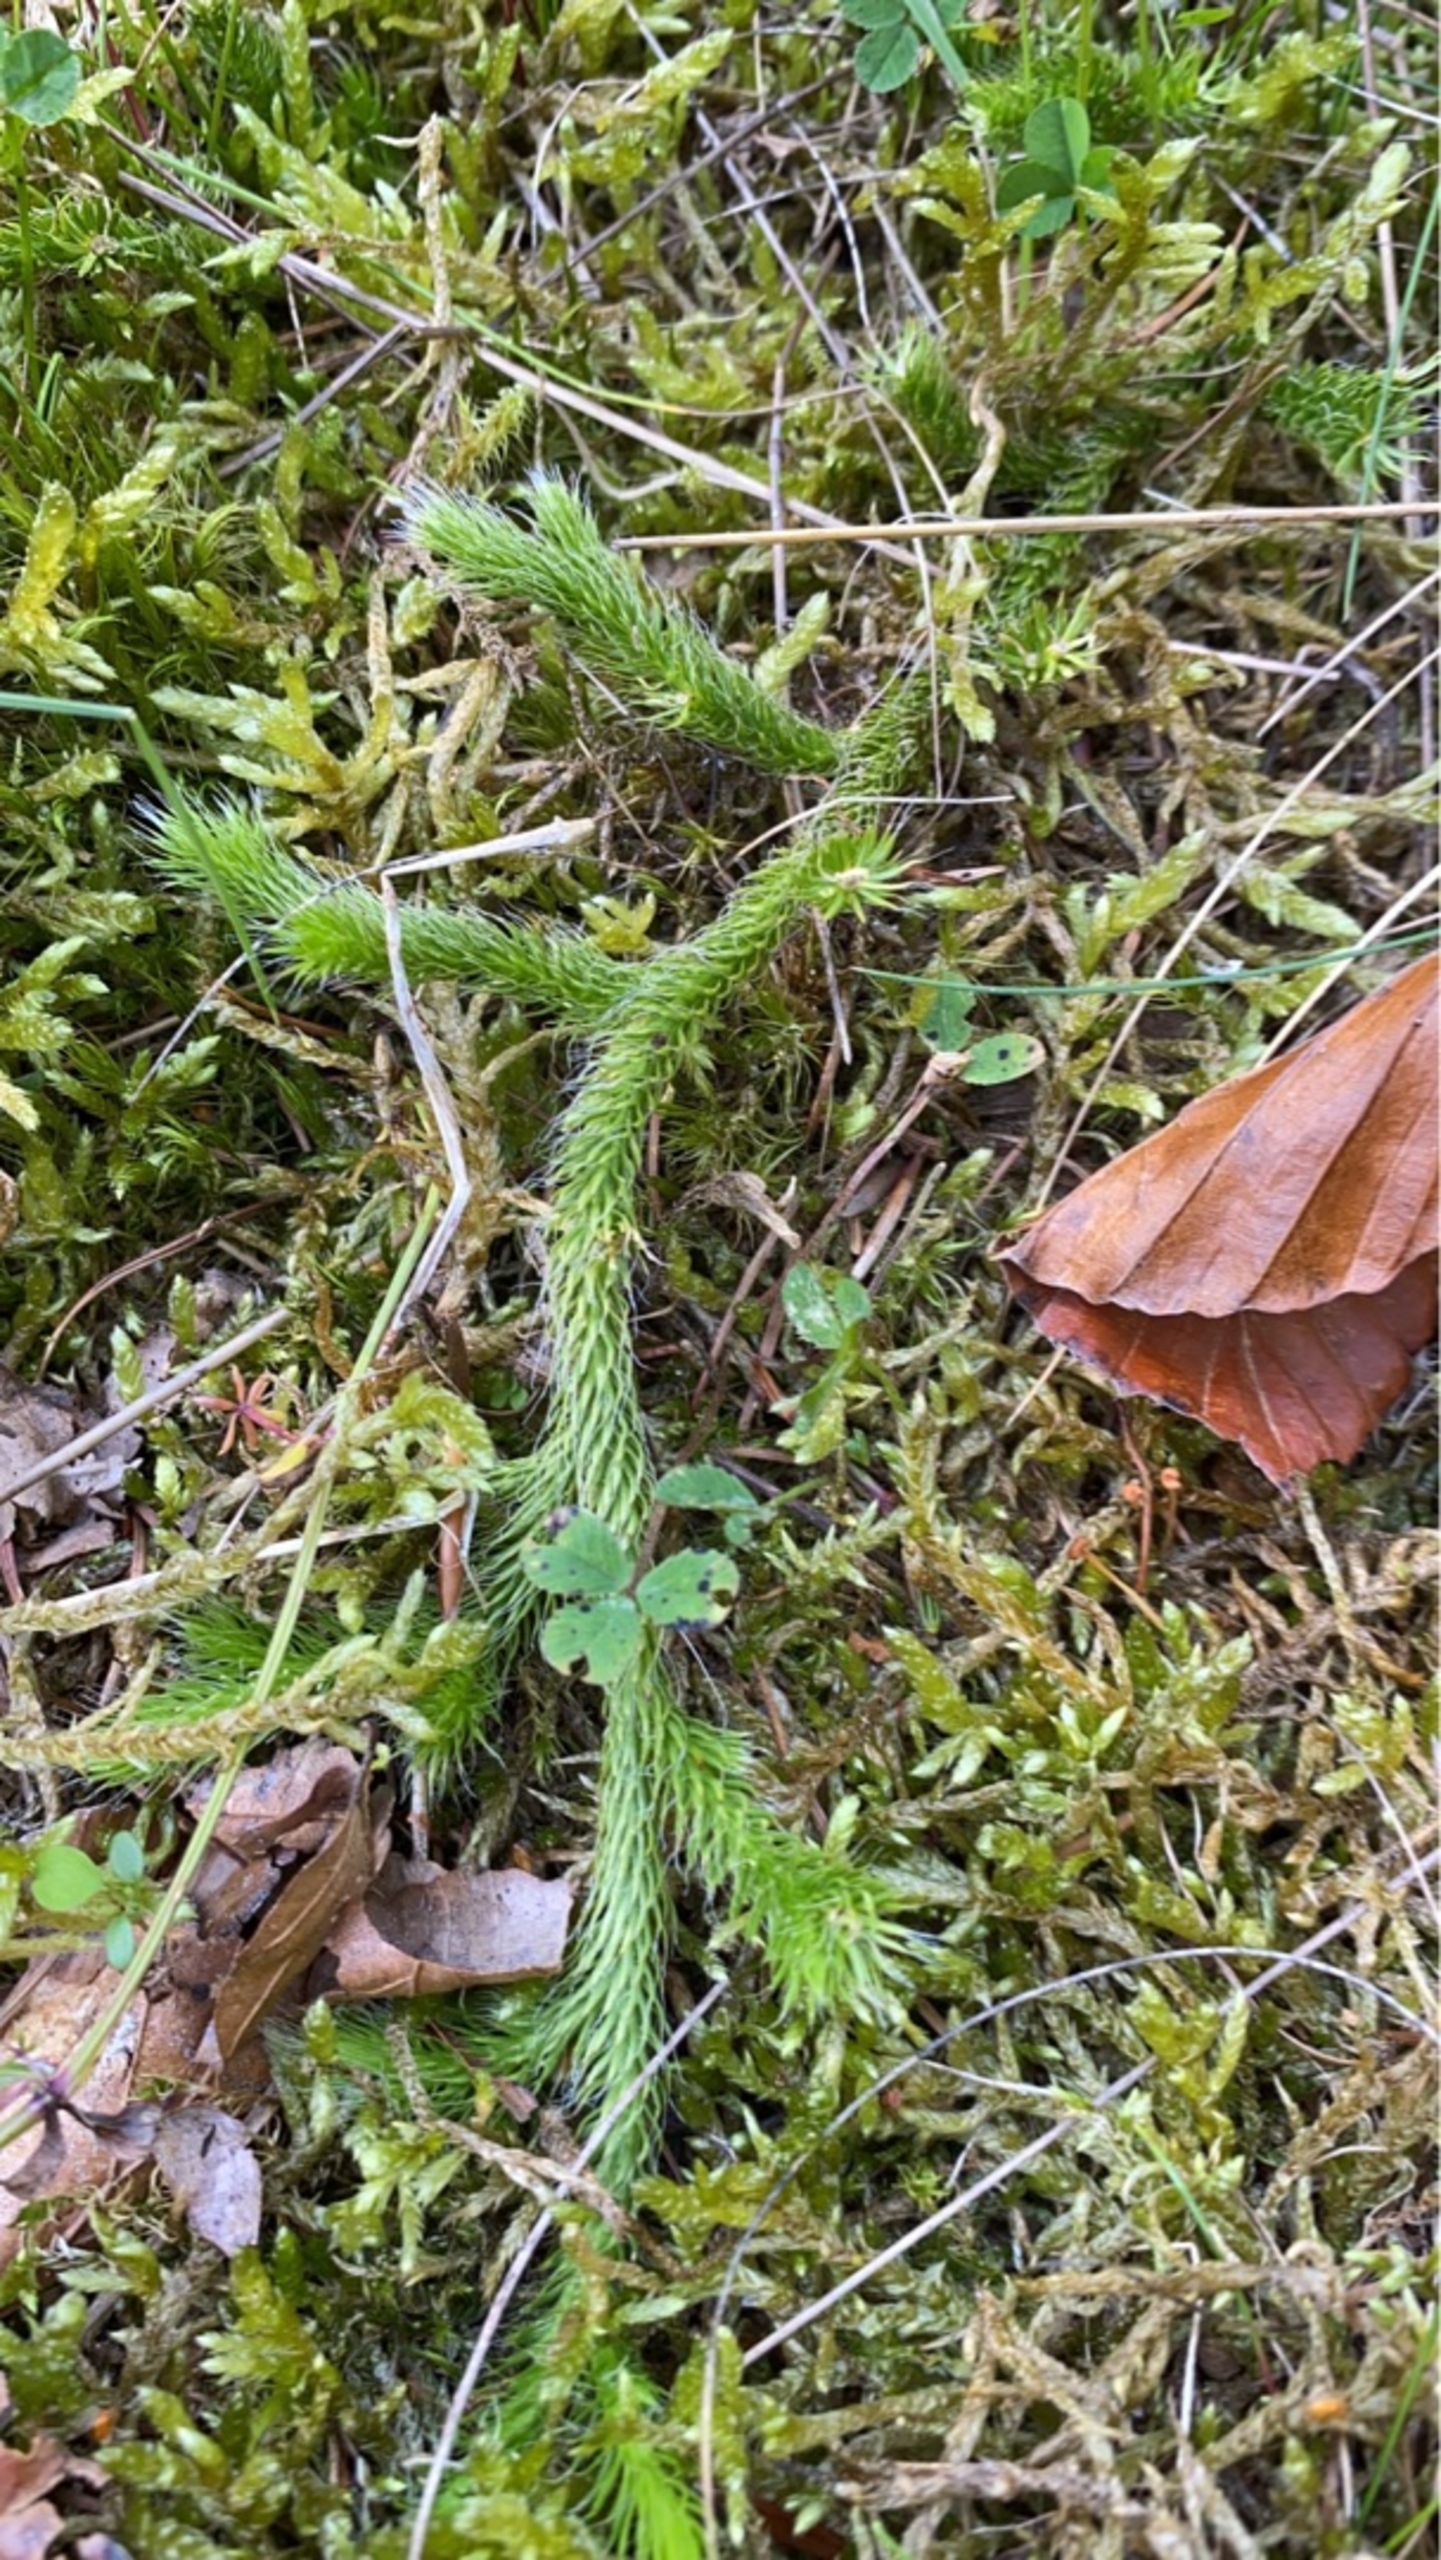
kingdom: Plantae
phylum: Tracheophyta
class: Lycopodiopsida
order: Lycopodiales
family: Lycopodiaceae
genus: Lycopodium
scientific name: Lycopodium clavatum
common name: Almindelig ulvefod
